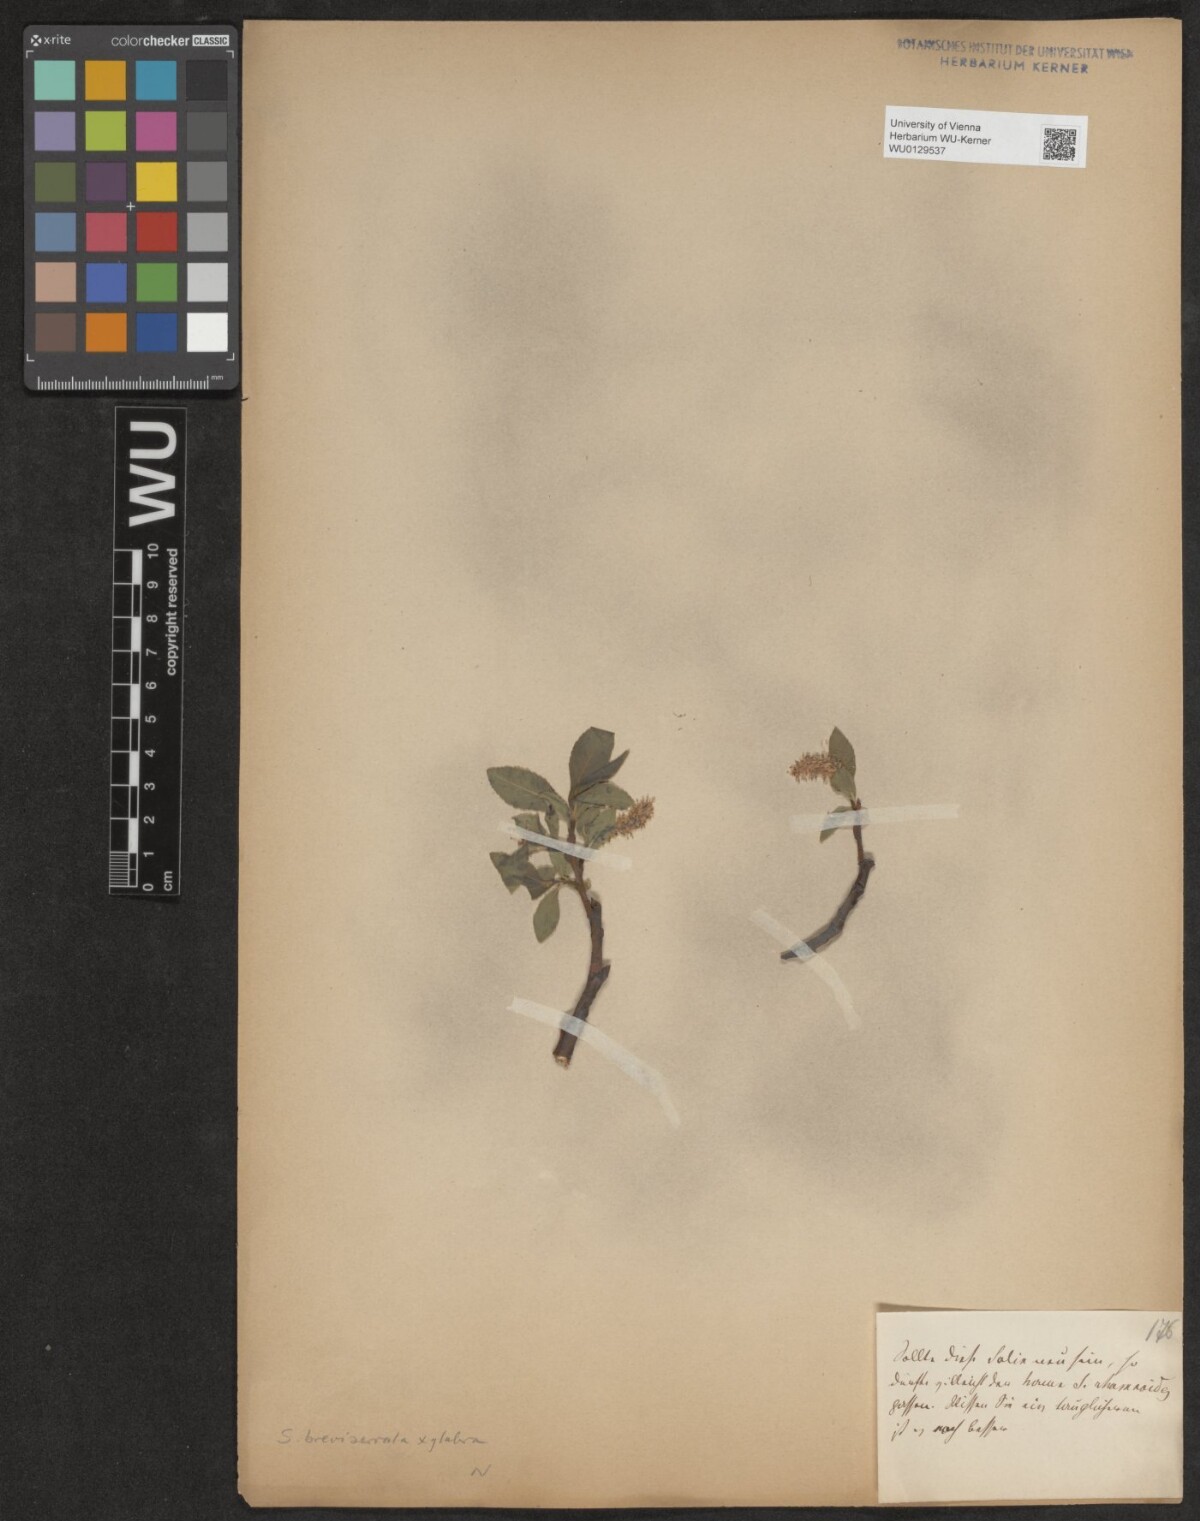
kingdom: Plantae
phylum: Tracheophyta
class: Magnoliopsida
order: Malpighiales
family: Salicaceae
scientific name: Salicaceae
